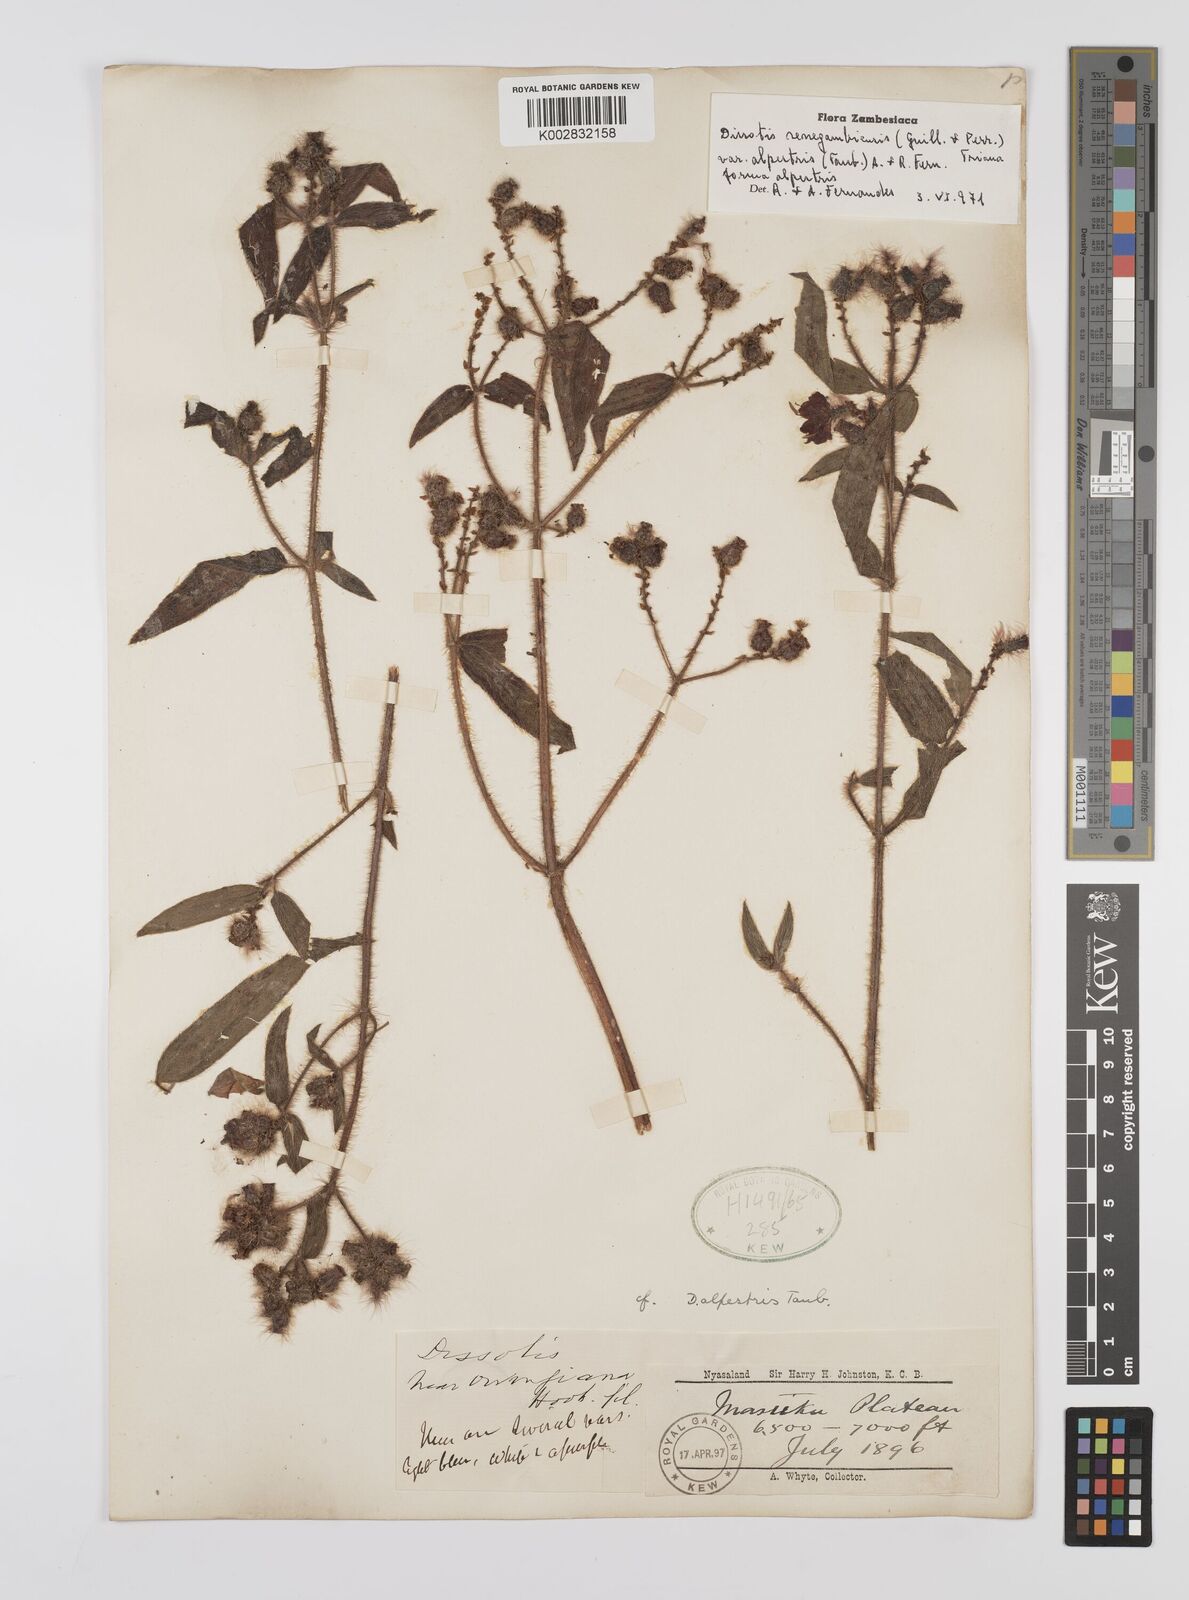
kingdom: Plantae
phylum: Tracheophyta
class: Magnoliopsida
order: Myrtales
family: Melastomataceae
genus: Nerophila
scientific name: Nerophila senegambiensis
